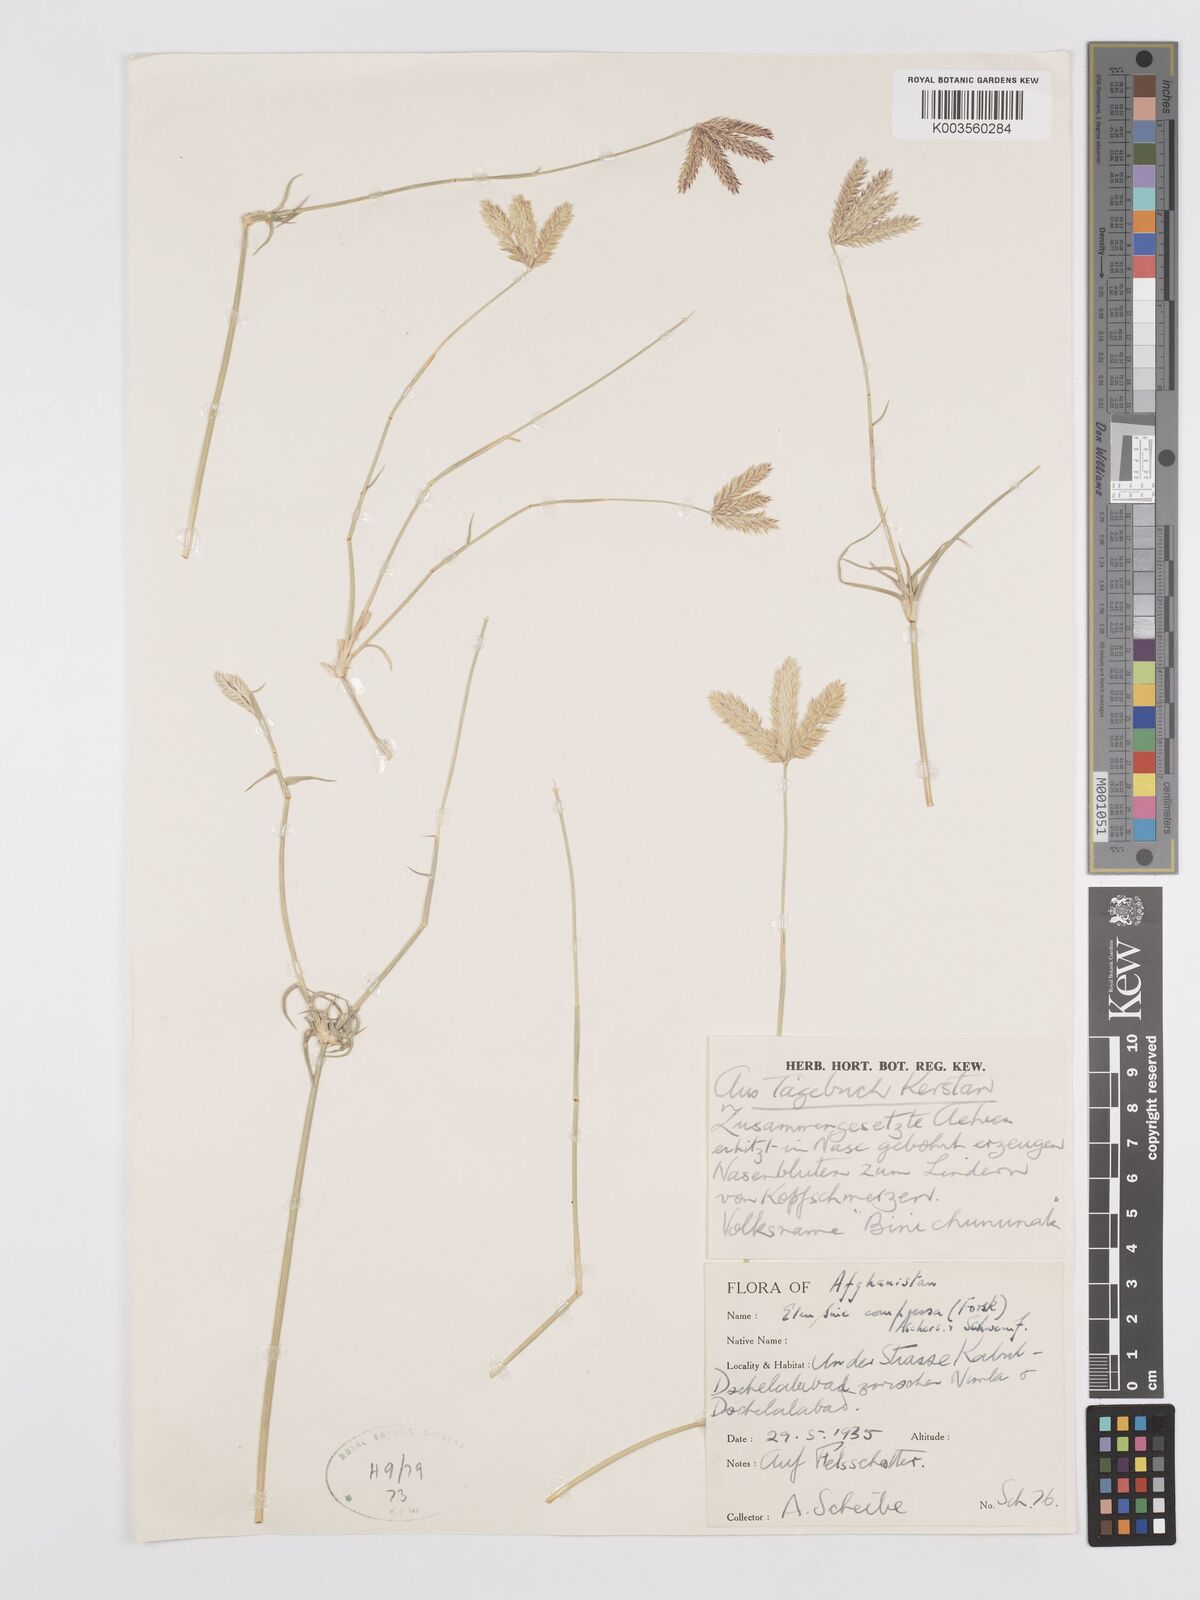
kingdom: Plantae
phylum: Tracheophyta
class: Liliopsida
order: Poales
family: Poaceae
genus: Chloris
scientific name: Chloris flagellifera
